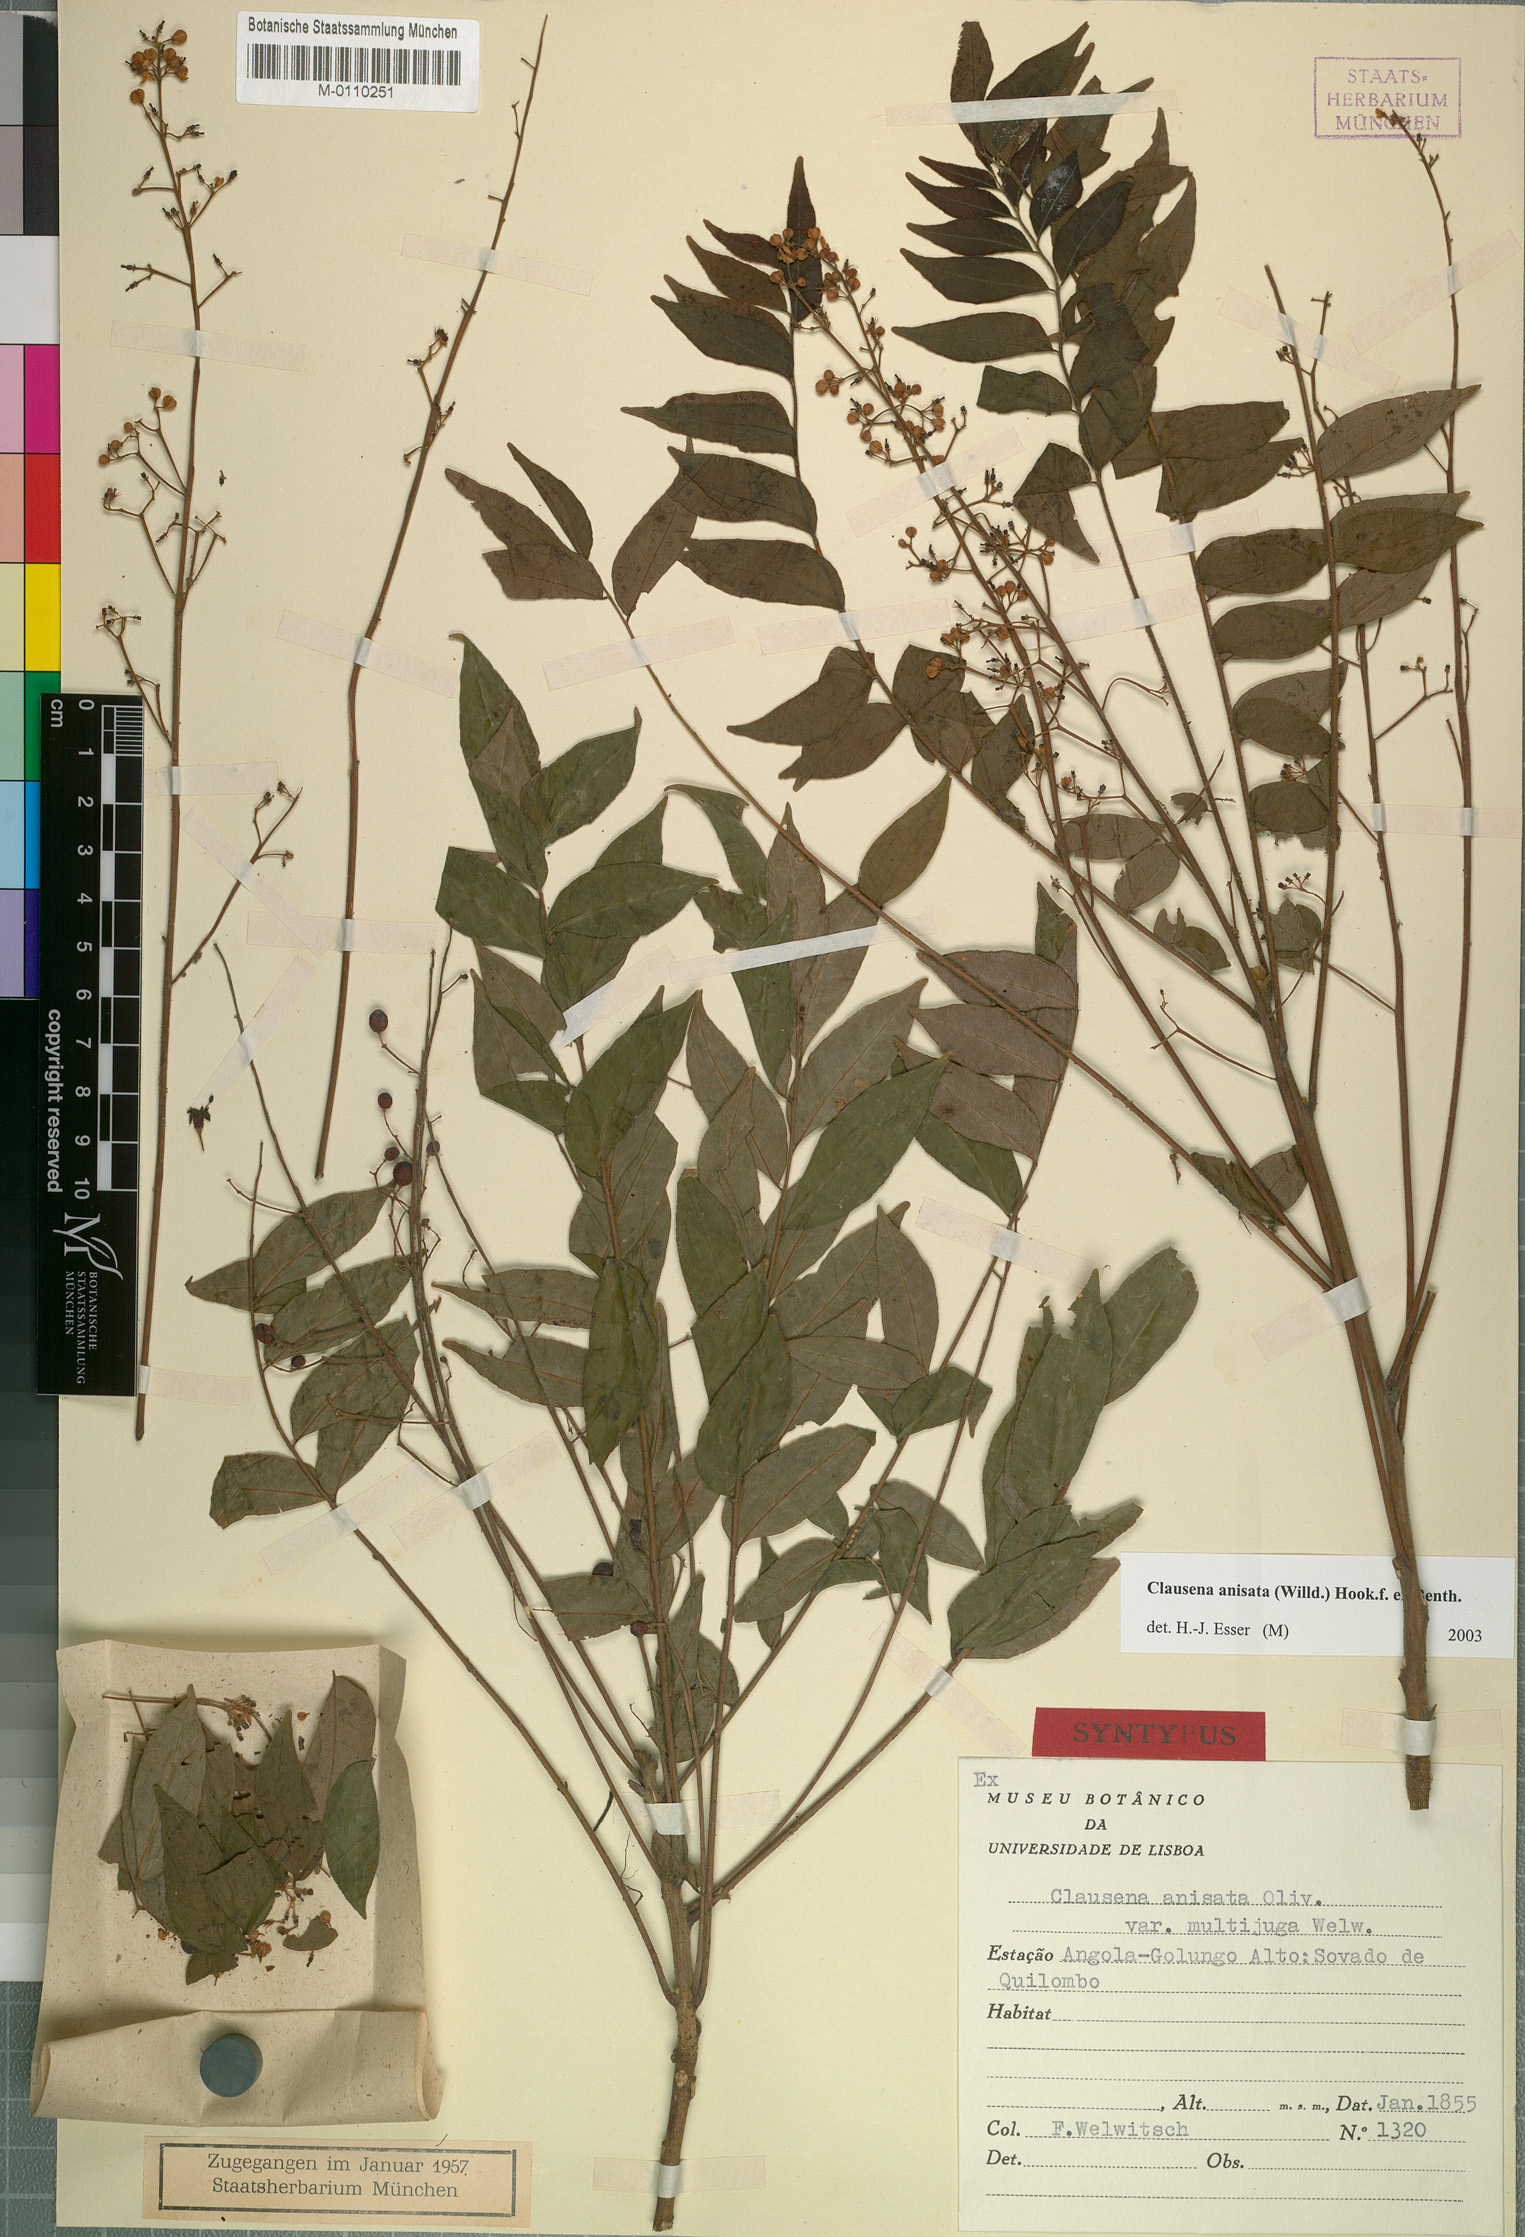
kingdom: Plantae
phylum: Tracheophyta
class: Magnoliopsida
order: Sapindales
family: Rutaceae
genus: Clausena
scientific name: Clausena anisata
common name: Horsewood
